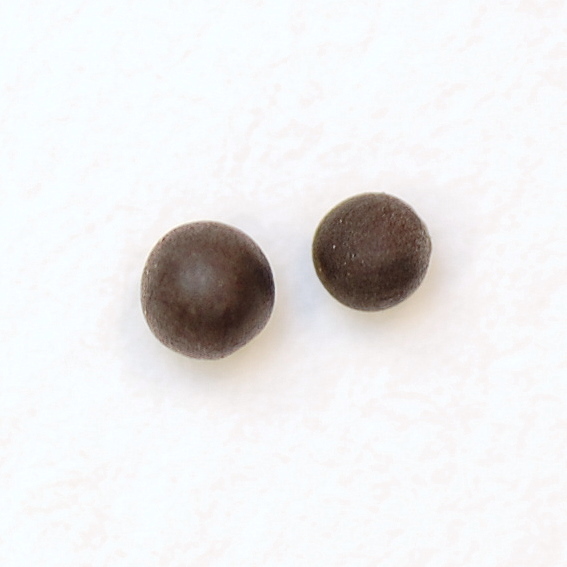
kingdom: Plantae
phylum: Tracheophyta
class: Magnoliopsida
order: Brassicales
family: Brassicaceae
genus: Sinapis
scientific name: Sinapis arvensis
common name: Charlock
